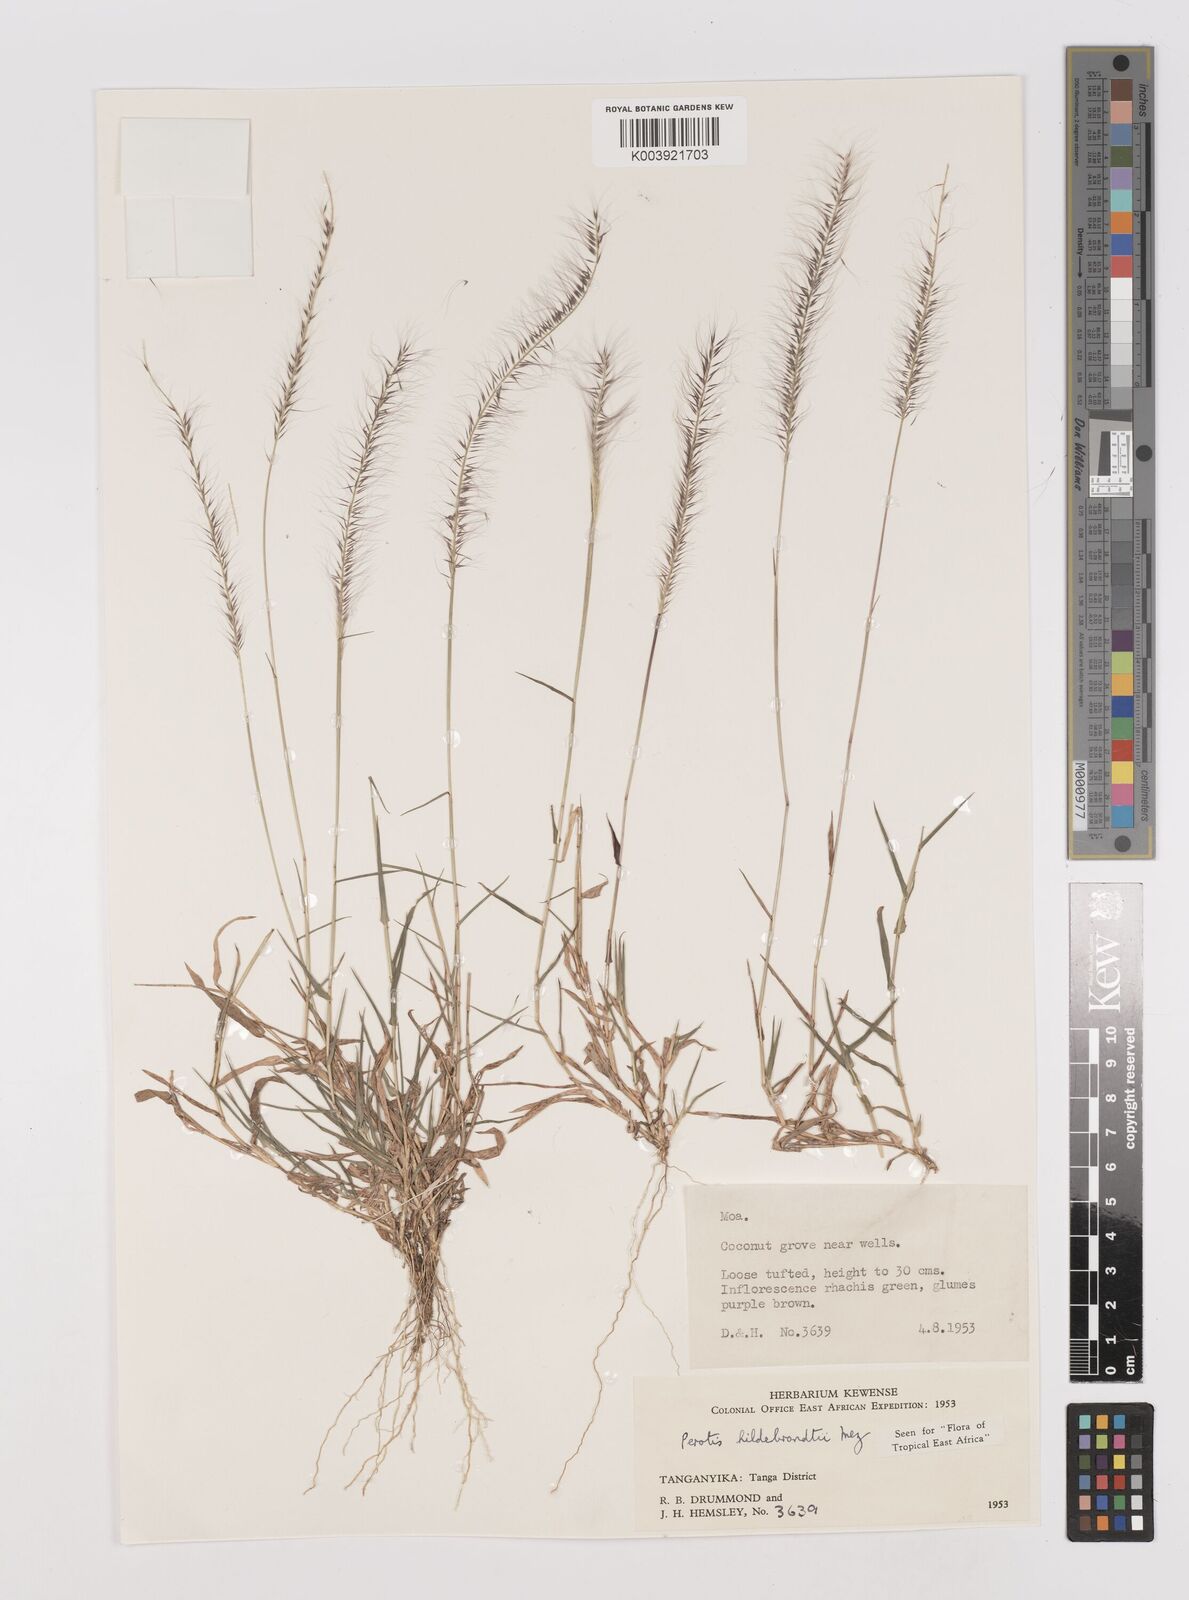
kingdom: Plantae
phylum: Tracheophyta
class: Liliopsida
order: Poales
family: Poaceae
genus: Perotis
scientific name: Perotis hildebrandtii
